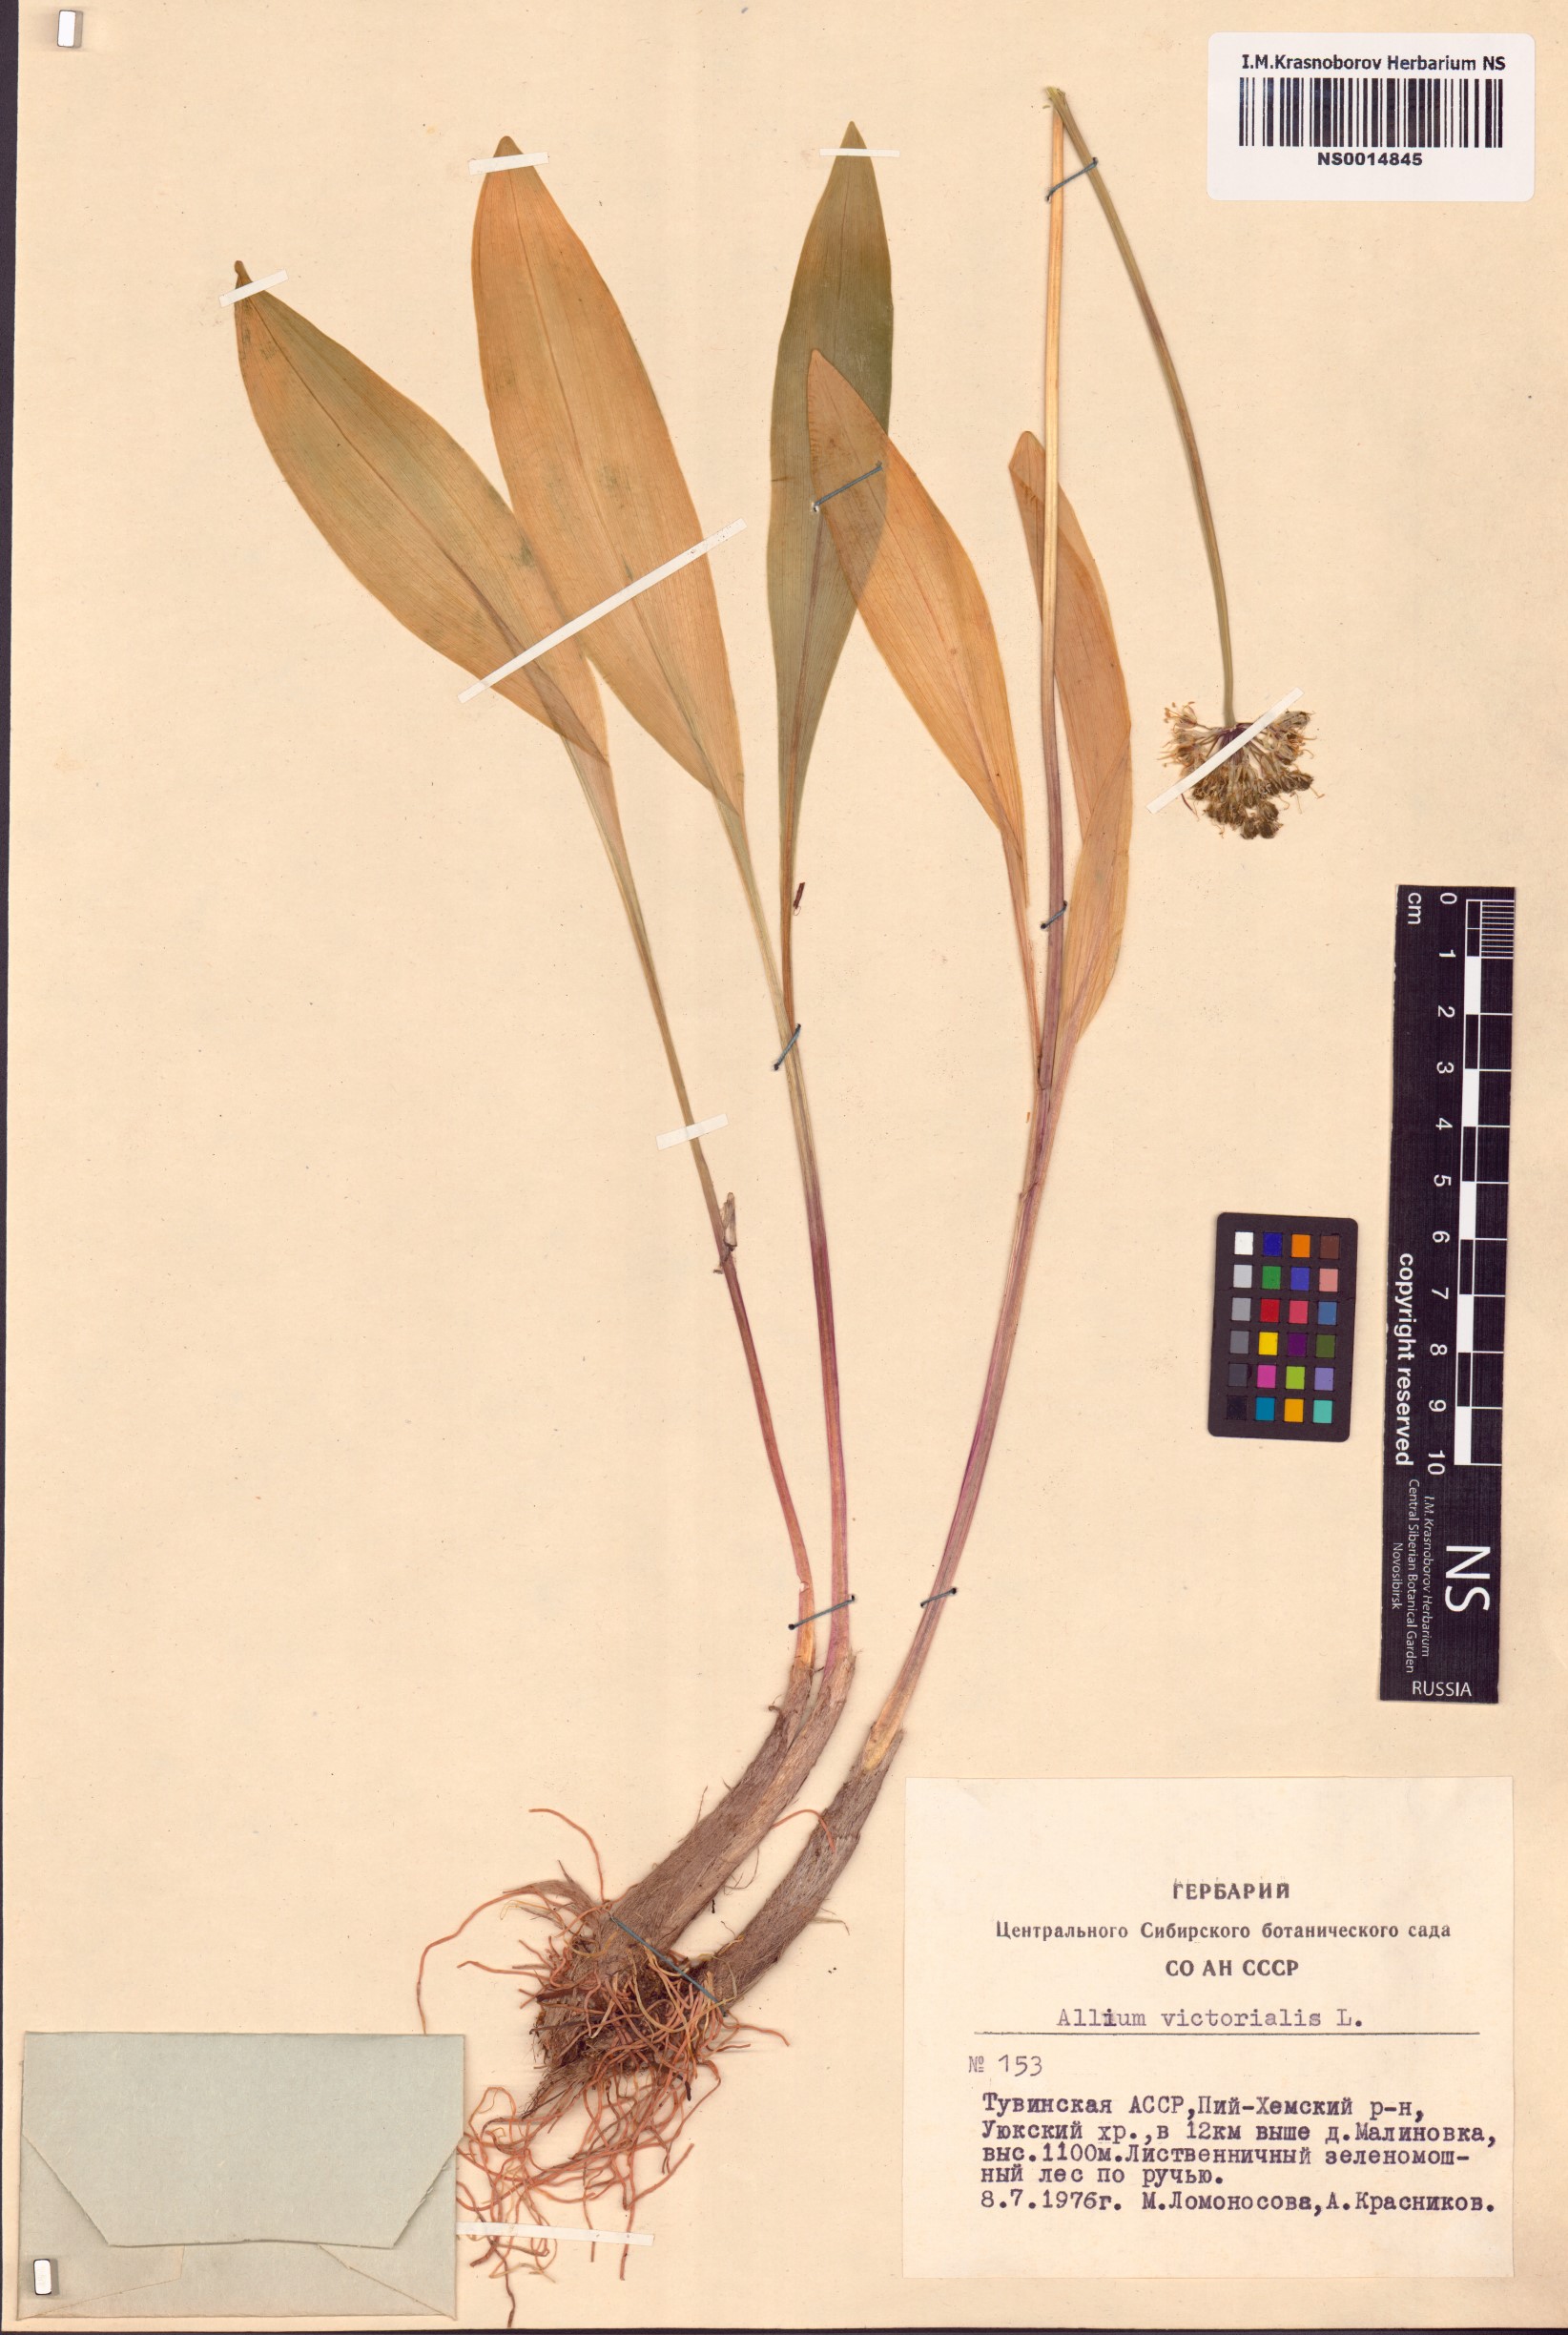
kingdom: Plantae
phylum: Tracheophyta
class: Liliopsida
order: Asparagales
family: Amaryllidaceae
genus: Allium
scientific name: Allium victorialis
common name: Alpine leek
